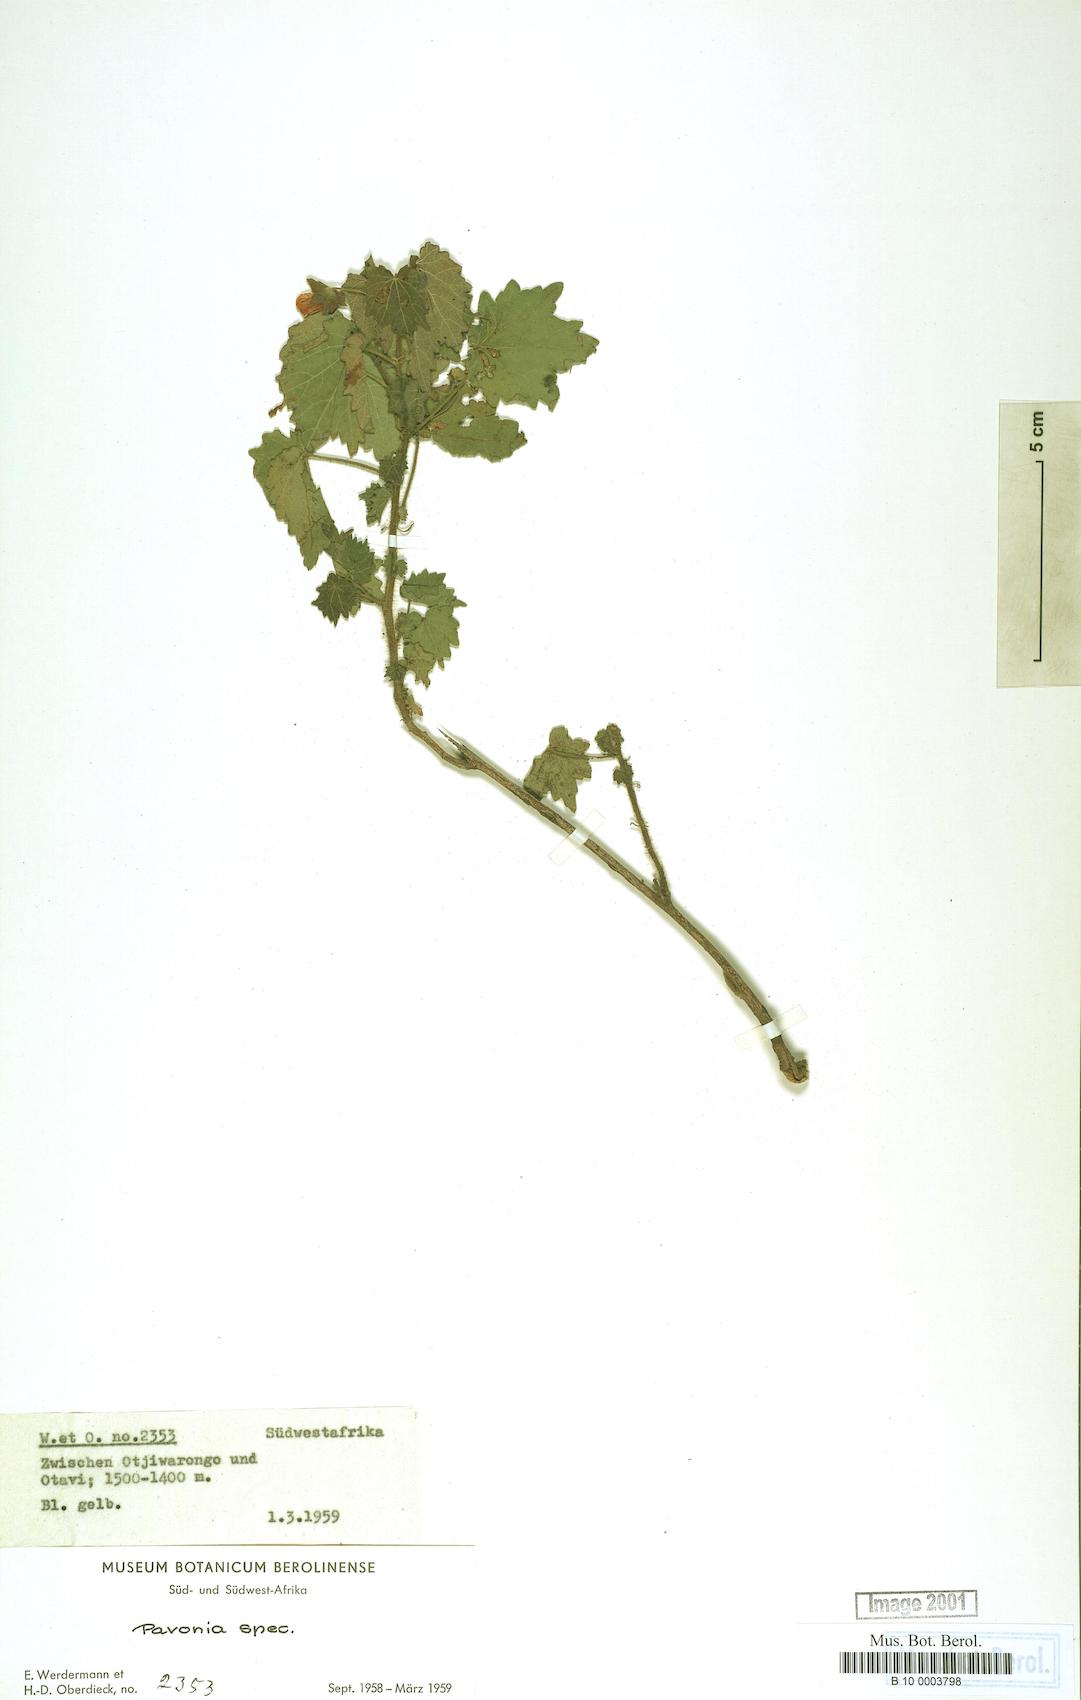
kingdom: Plantae
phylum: Tracheophyta
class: Magnoliopsida
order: Malvales
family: Malvaceae
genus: Pavonia
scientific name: Pavonia
